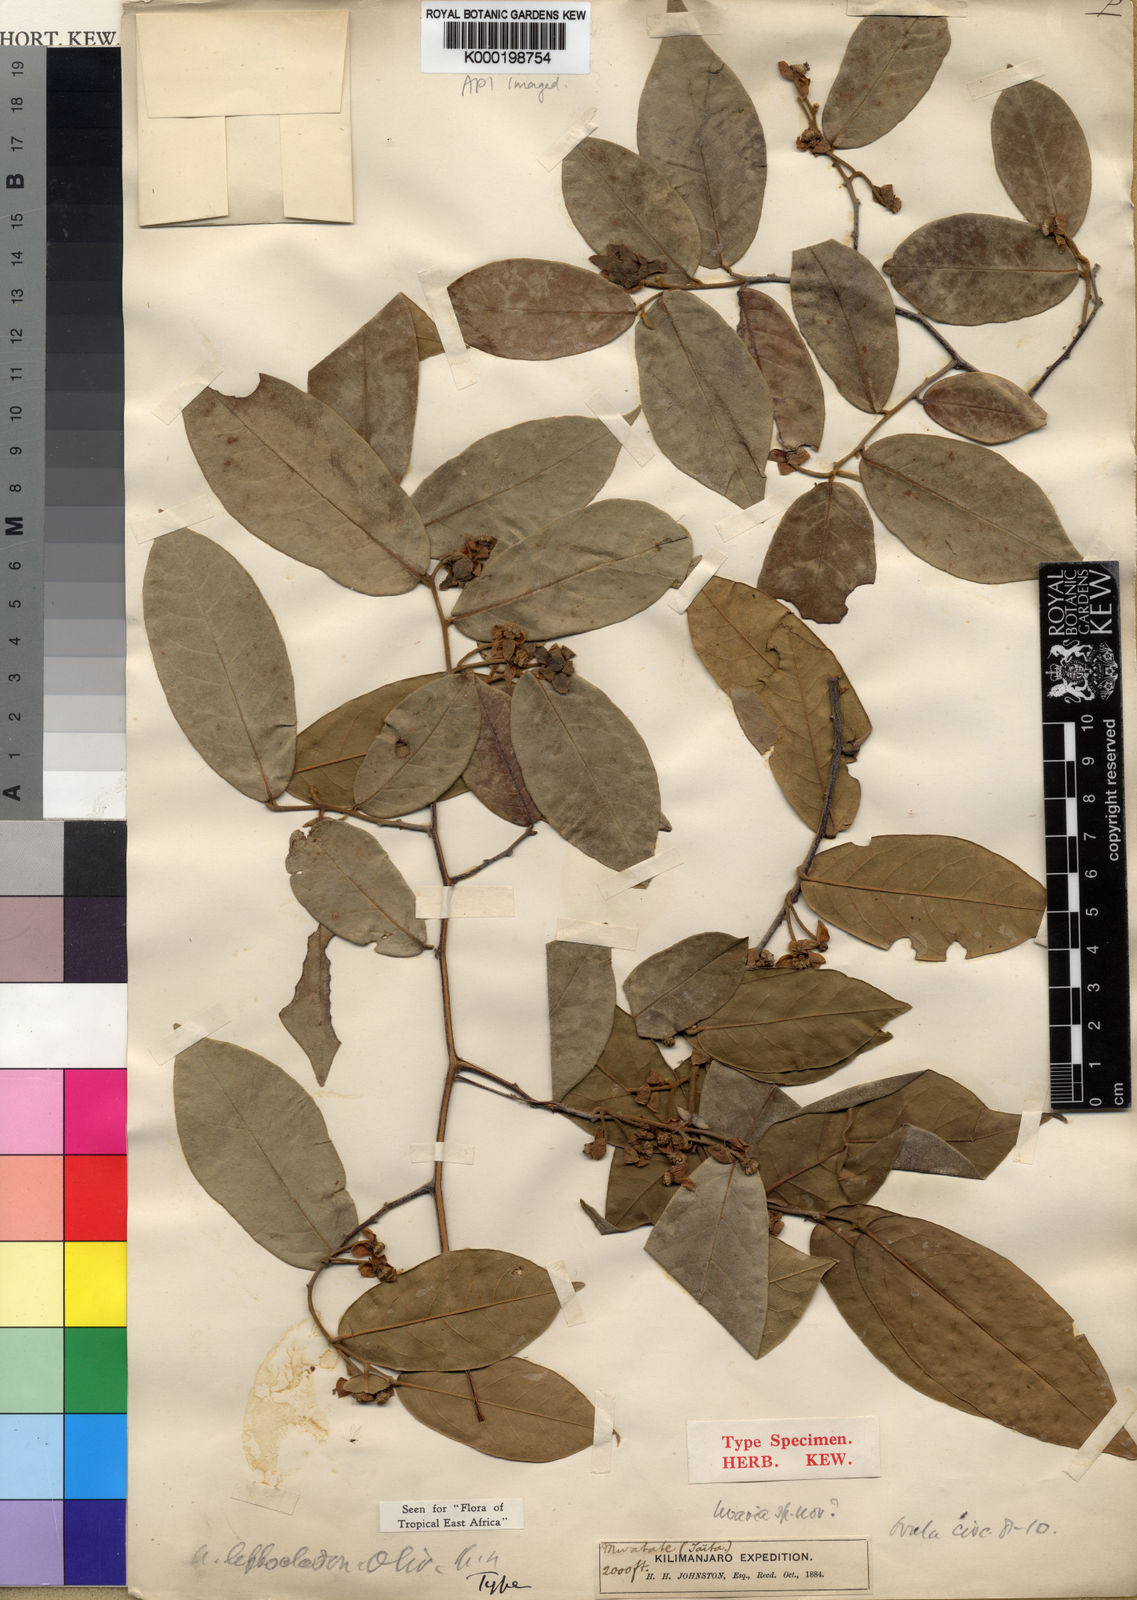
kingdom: Plantae
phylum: Tracheophyta
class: Magnoliopsida
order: Magnoliales
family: Annonaceae
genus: Uvaria
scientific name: Uvaria leptocladon
